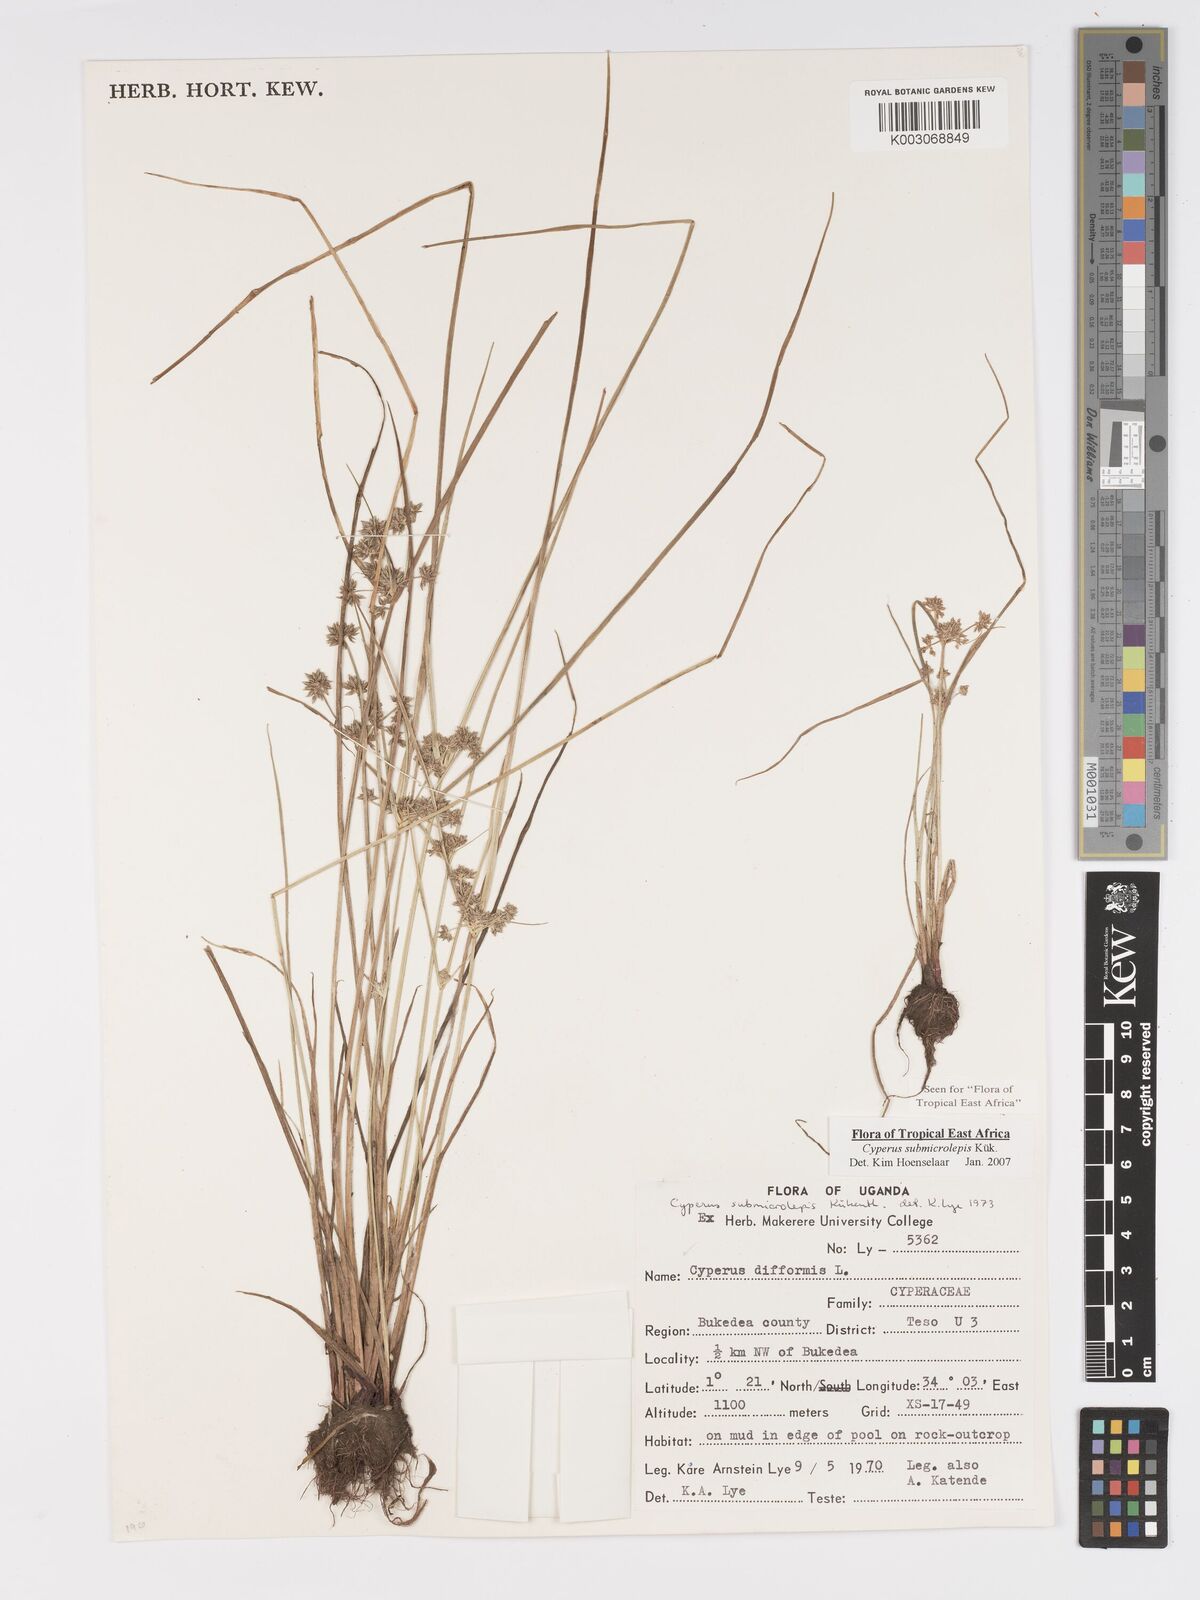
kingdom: Plantae
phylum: Tracheophyta
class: Liliopsida
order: Poales
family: Cyperaceae
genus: Cyperus
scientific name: Cyperus neoguinensis
